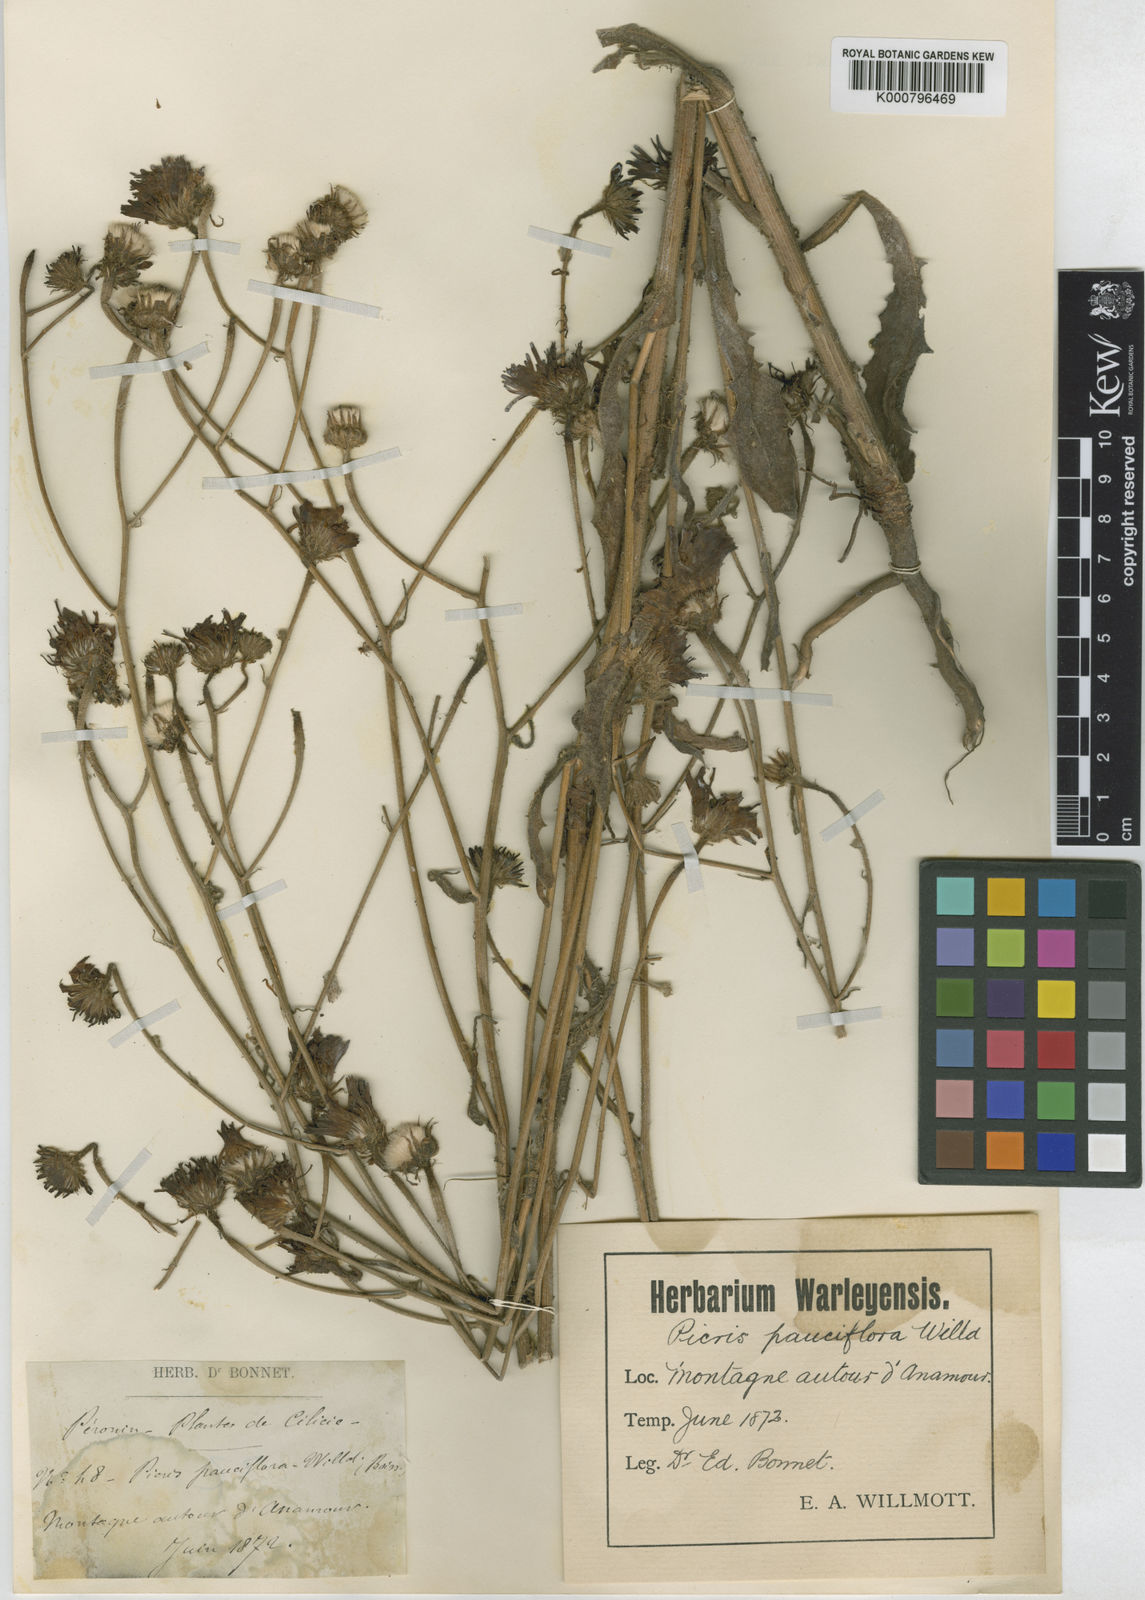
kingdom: Plantae
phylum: Tracheophyta
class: Magnoliopsida
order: Asterales
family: Asteraceae
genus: Picris
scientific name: Picris cyprica
